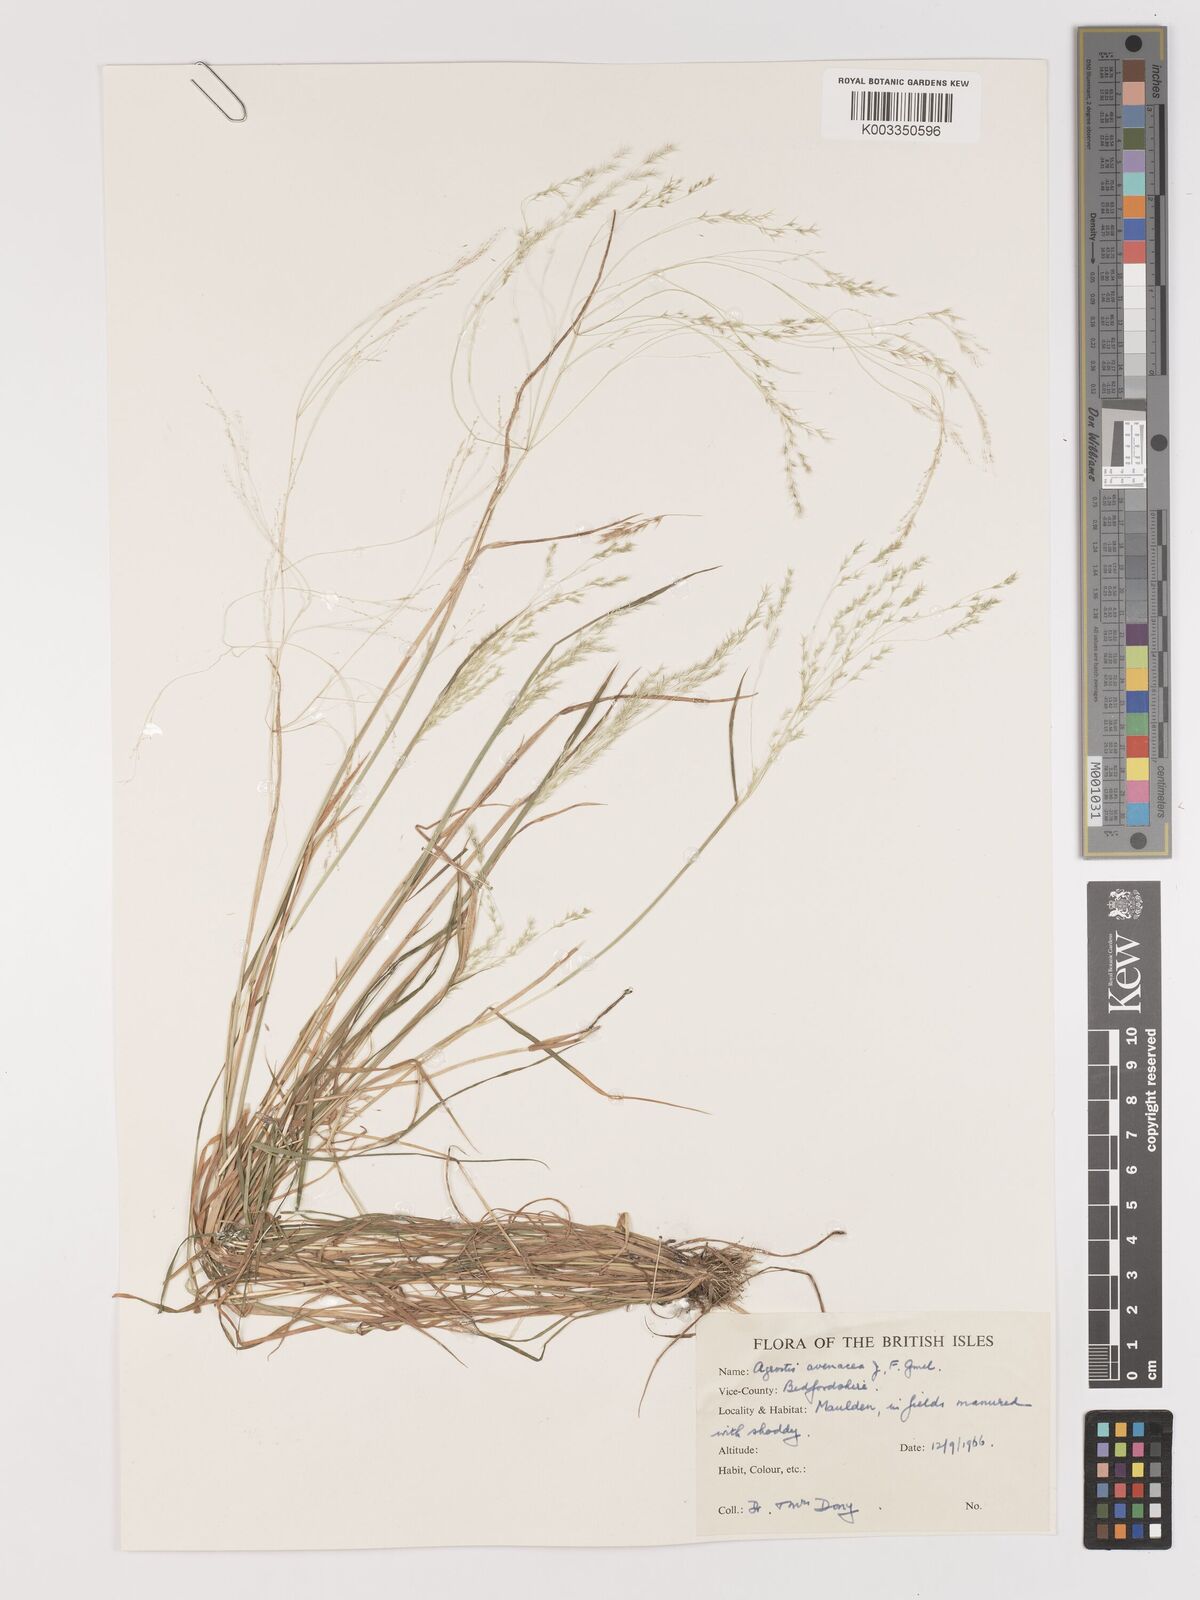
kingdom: Plantae
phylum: Tracheophyta
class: Liliopsida
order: Poales
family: Poaceae
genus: Lachnagrostis
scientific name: Lachnagrostis filiformis
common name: Bentgrass
